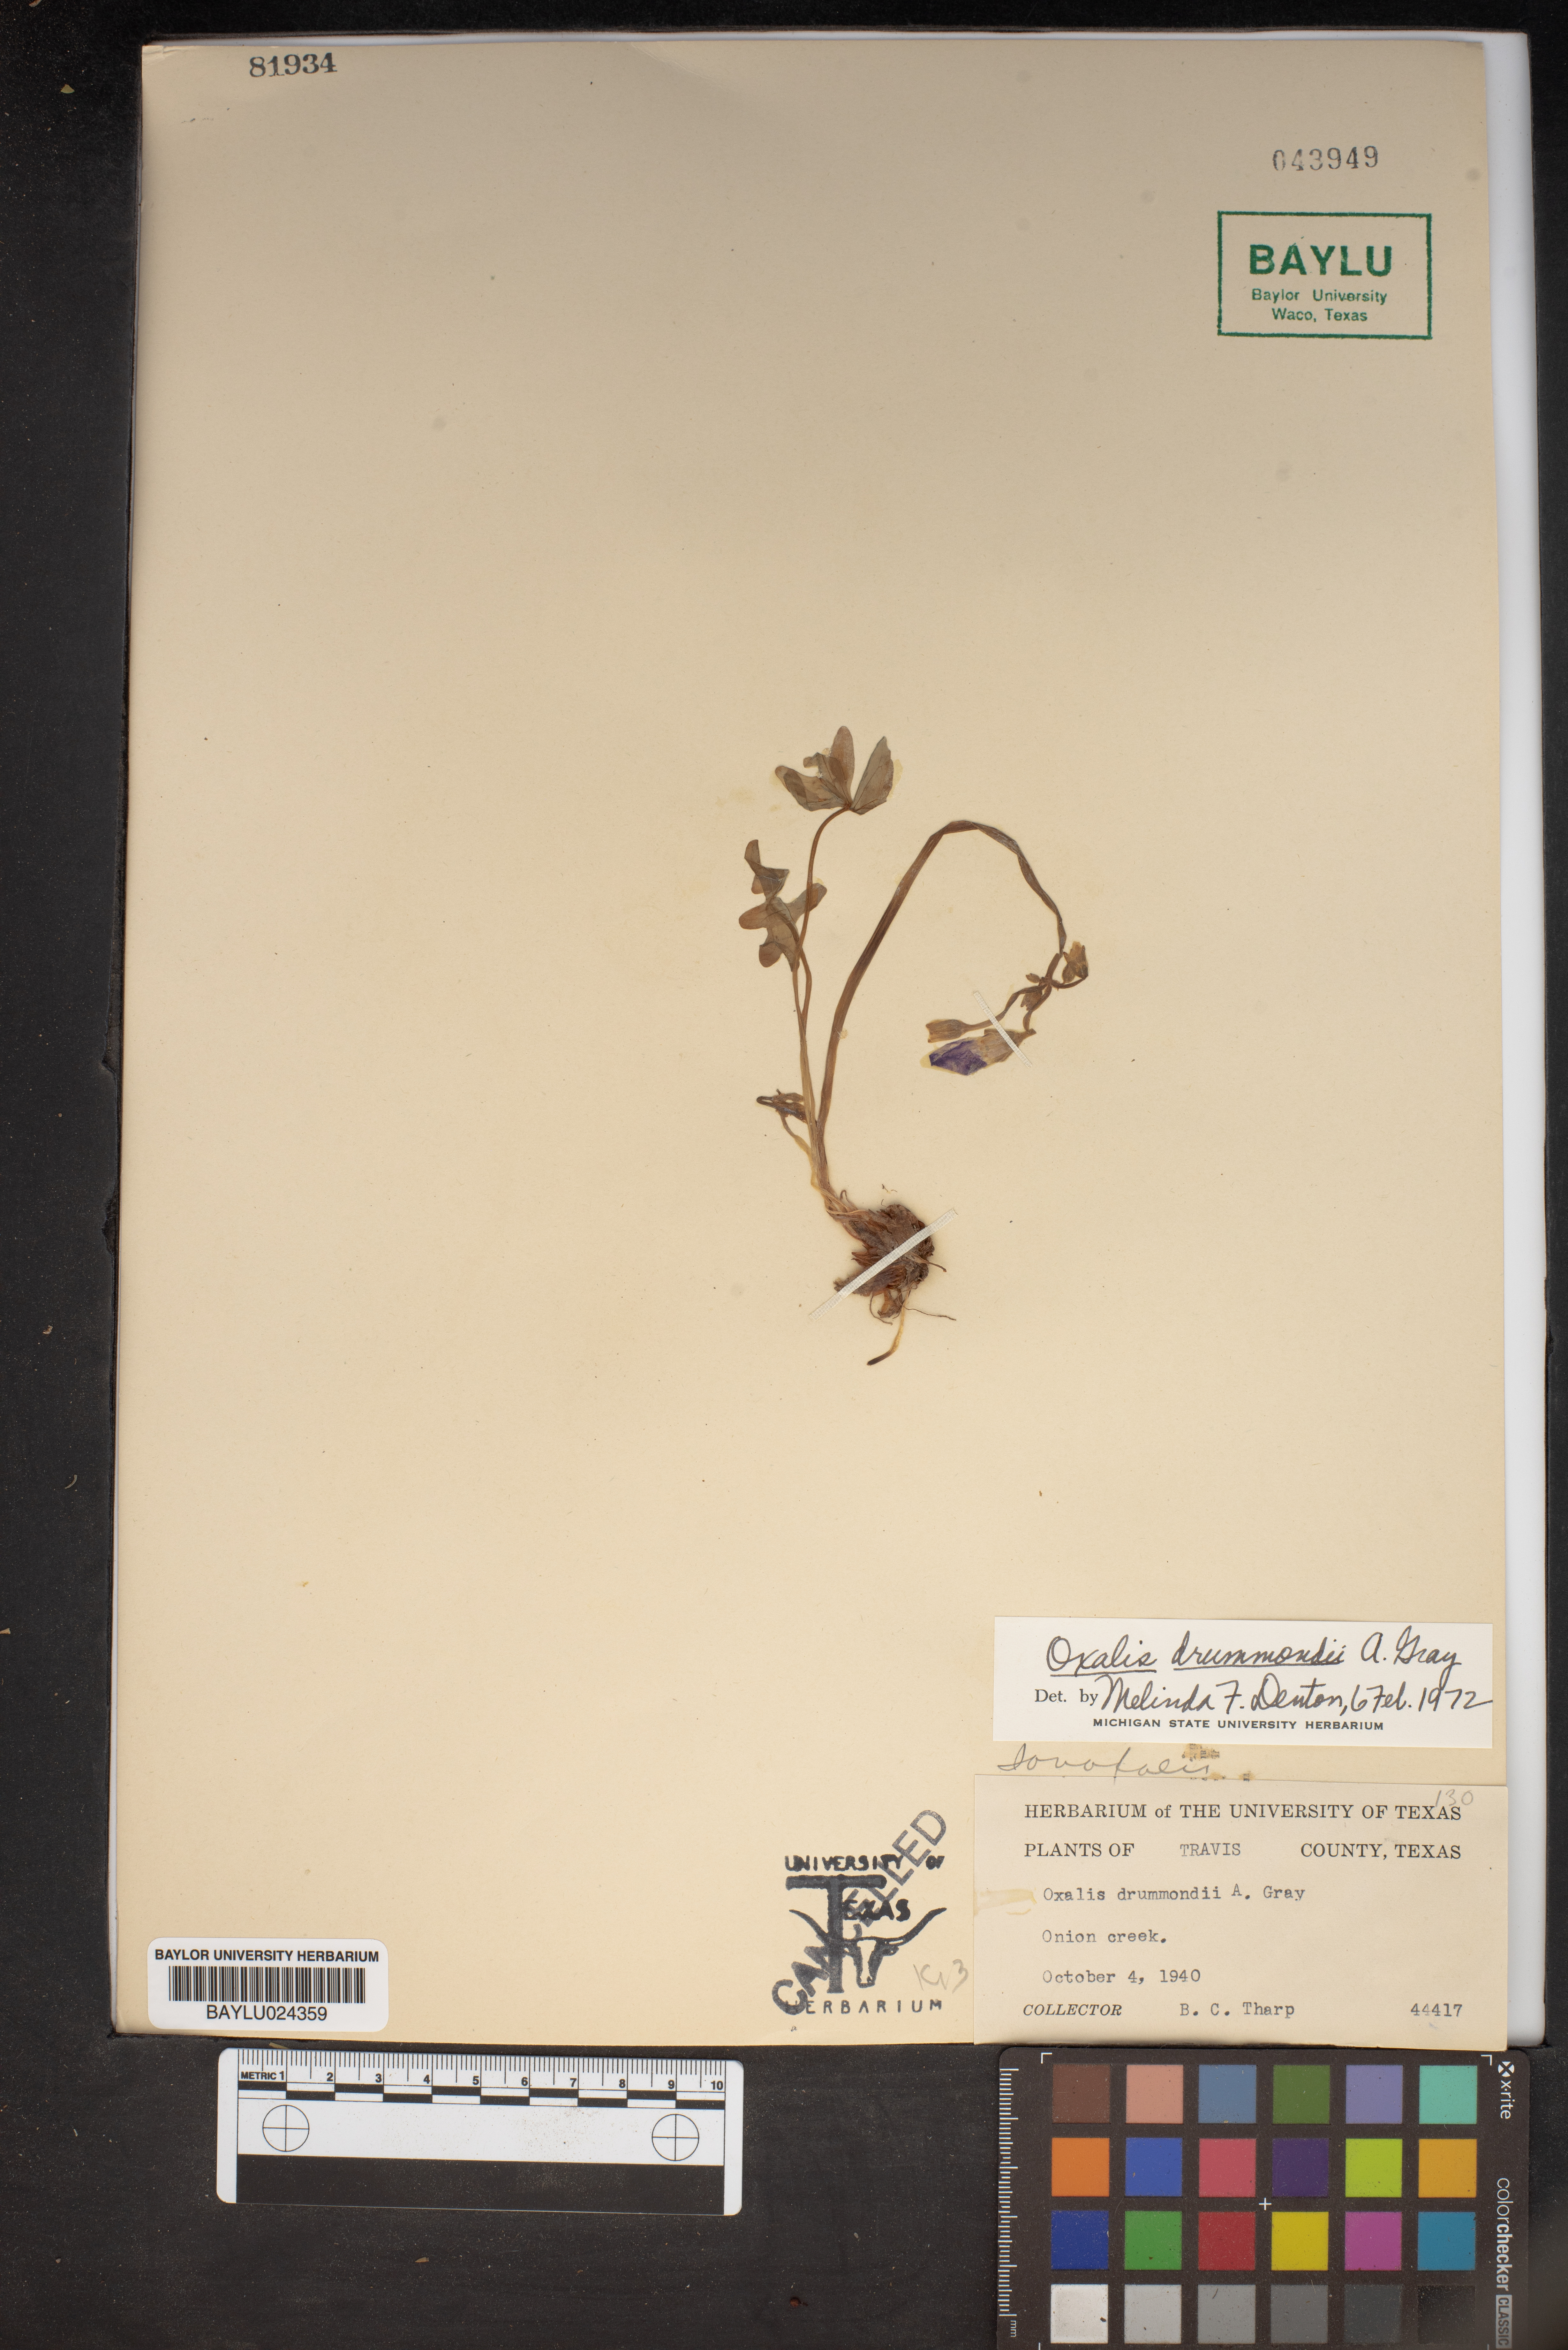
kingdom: Plantae
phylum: Tracheophyta
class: Magnoliopsida
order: Oxalidales
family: Oxalidaceae
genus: Oxalis
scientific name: Oxalis drummondii
